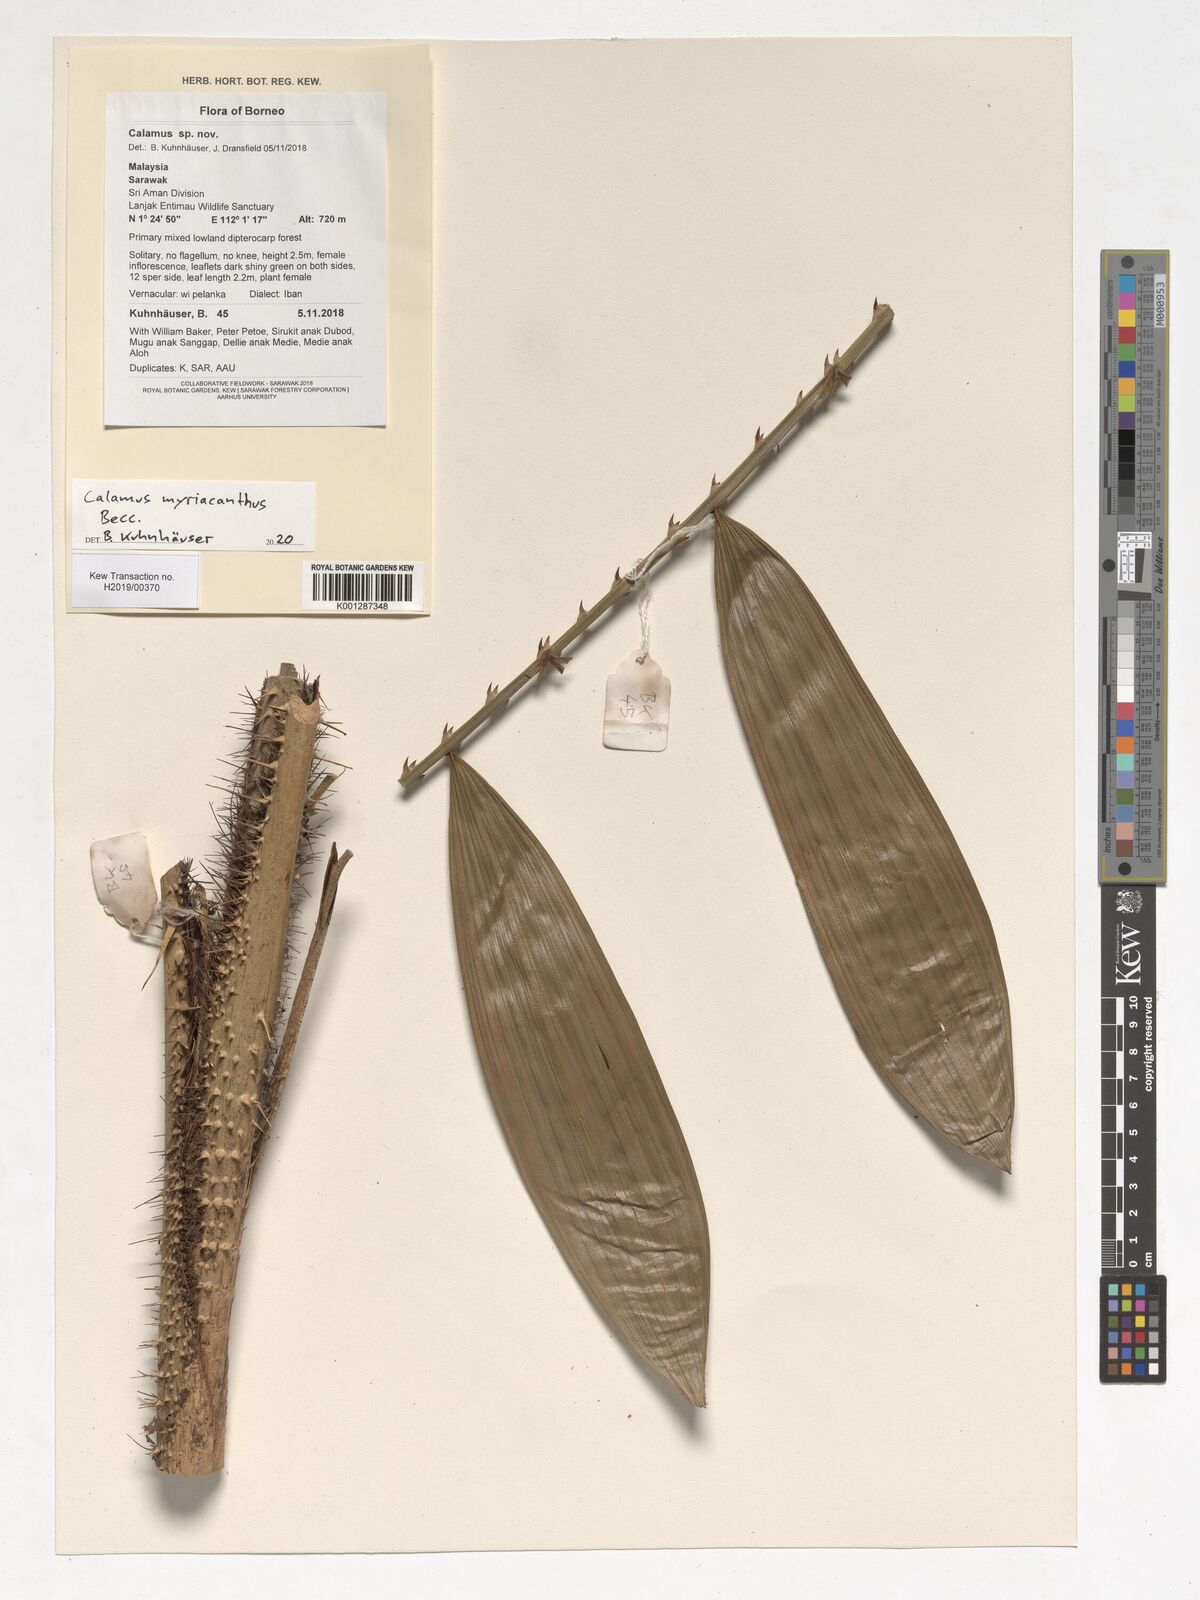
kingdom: Plantae
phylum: Tracheophyta
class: Liliopsida
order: Arecales
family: Arecaceae
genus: Calamus
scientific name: Calamus myriacanthus
